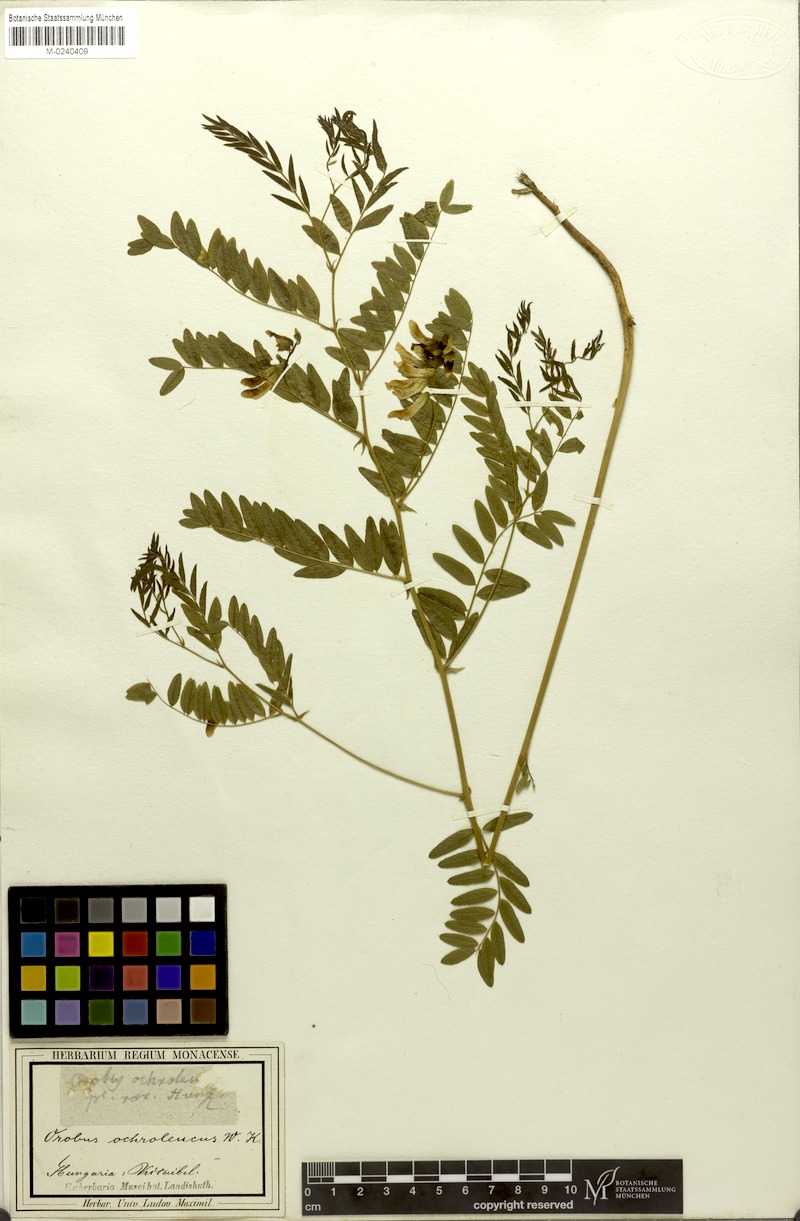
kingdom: Plantae
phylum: Tracheophyta
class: Magnoliopsida
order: Fabales
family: Fabaceae
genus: Vicia
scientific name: Vicia sparsiflora
